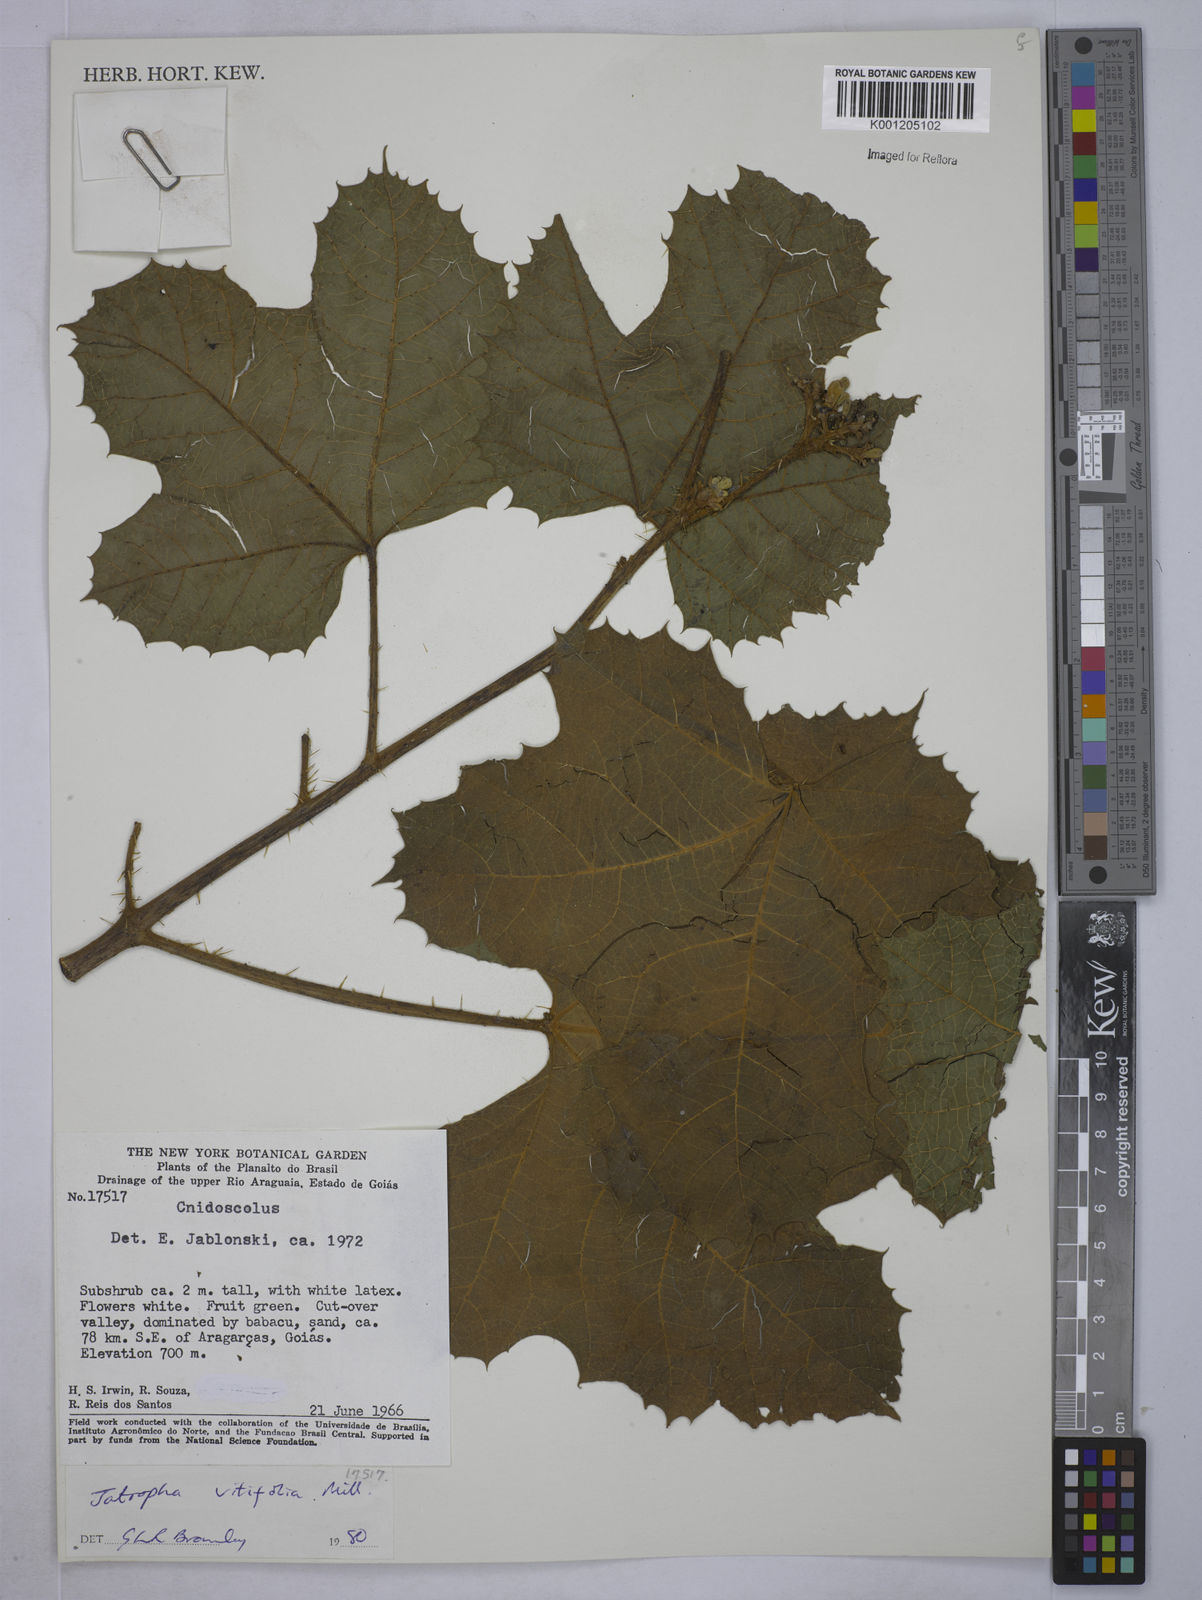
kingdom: Plantae
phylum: Tracheophyta
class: Magnoliopsida
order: Malpighiales
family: Euphorbiaceae
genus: Cnidoscolus
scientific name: Cnidoscolus vitifolius
